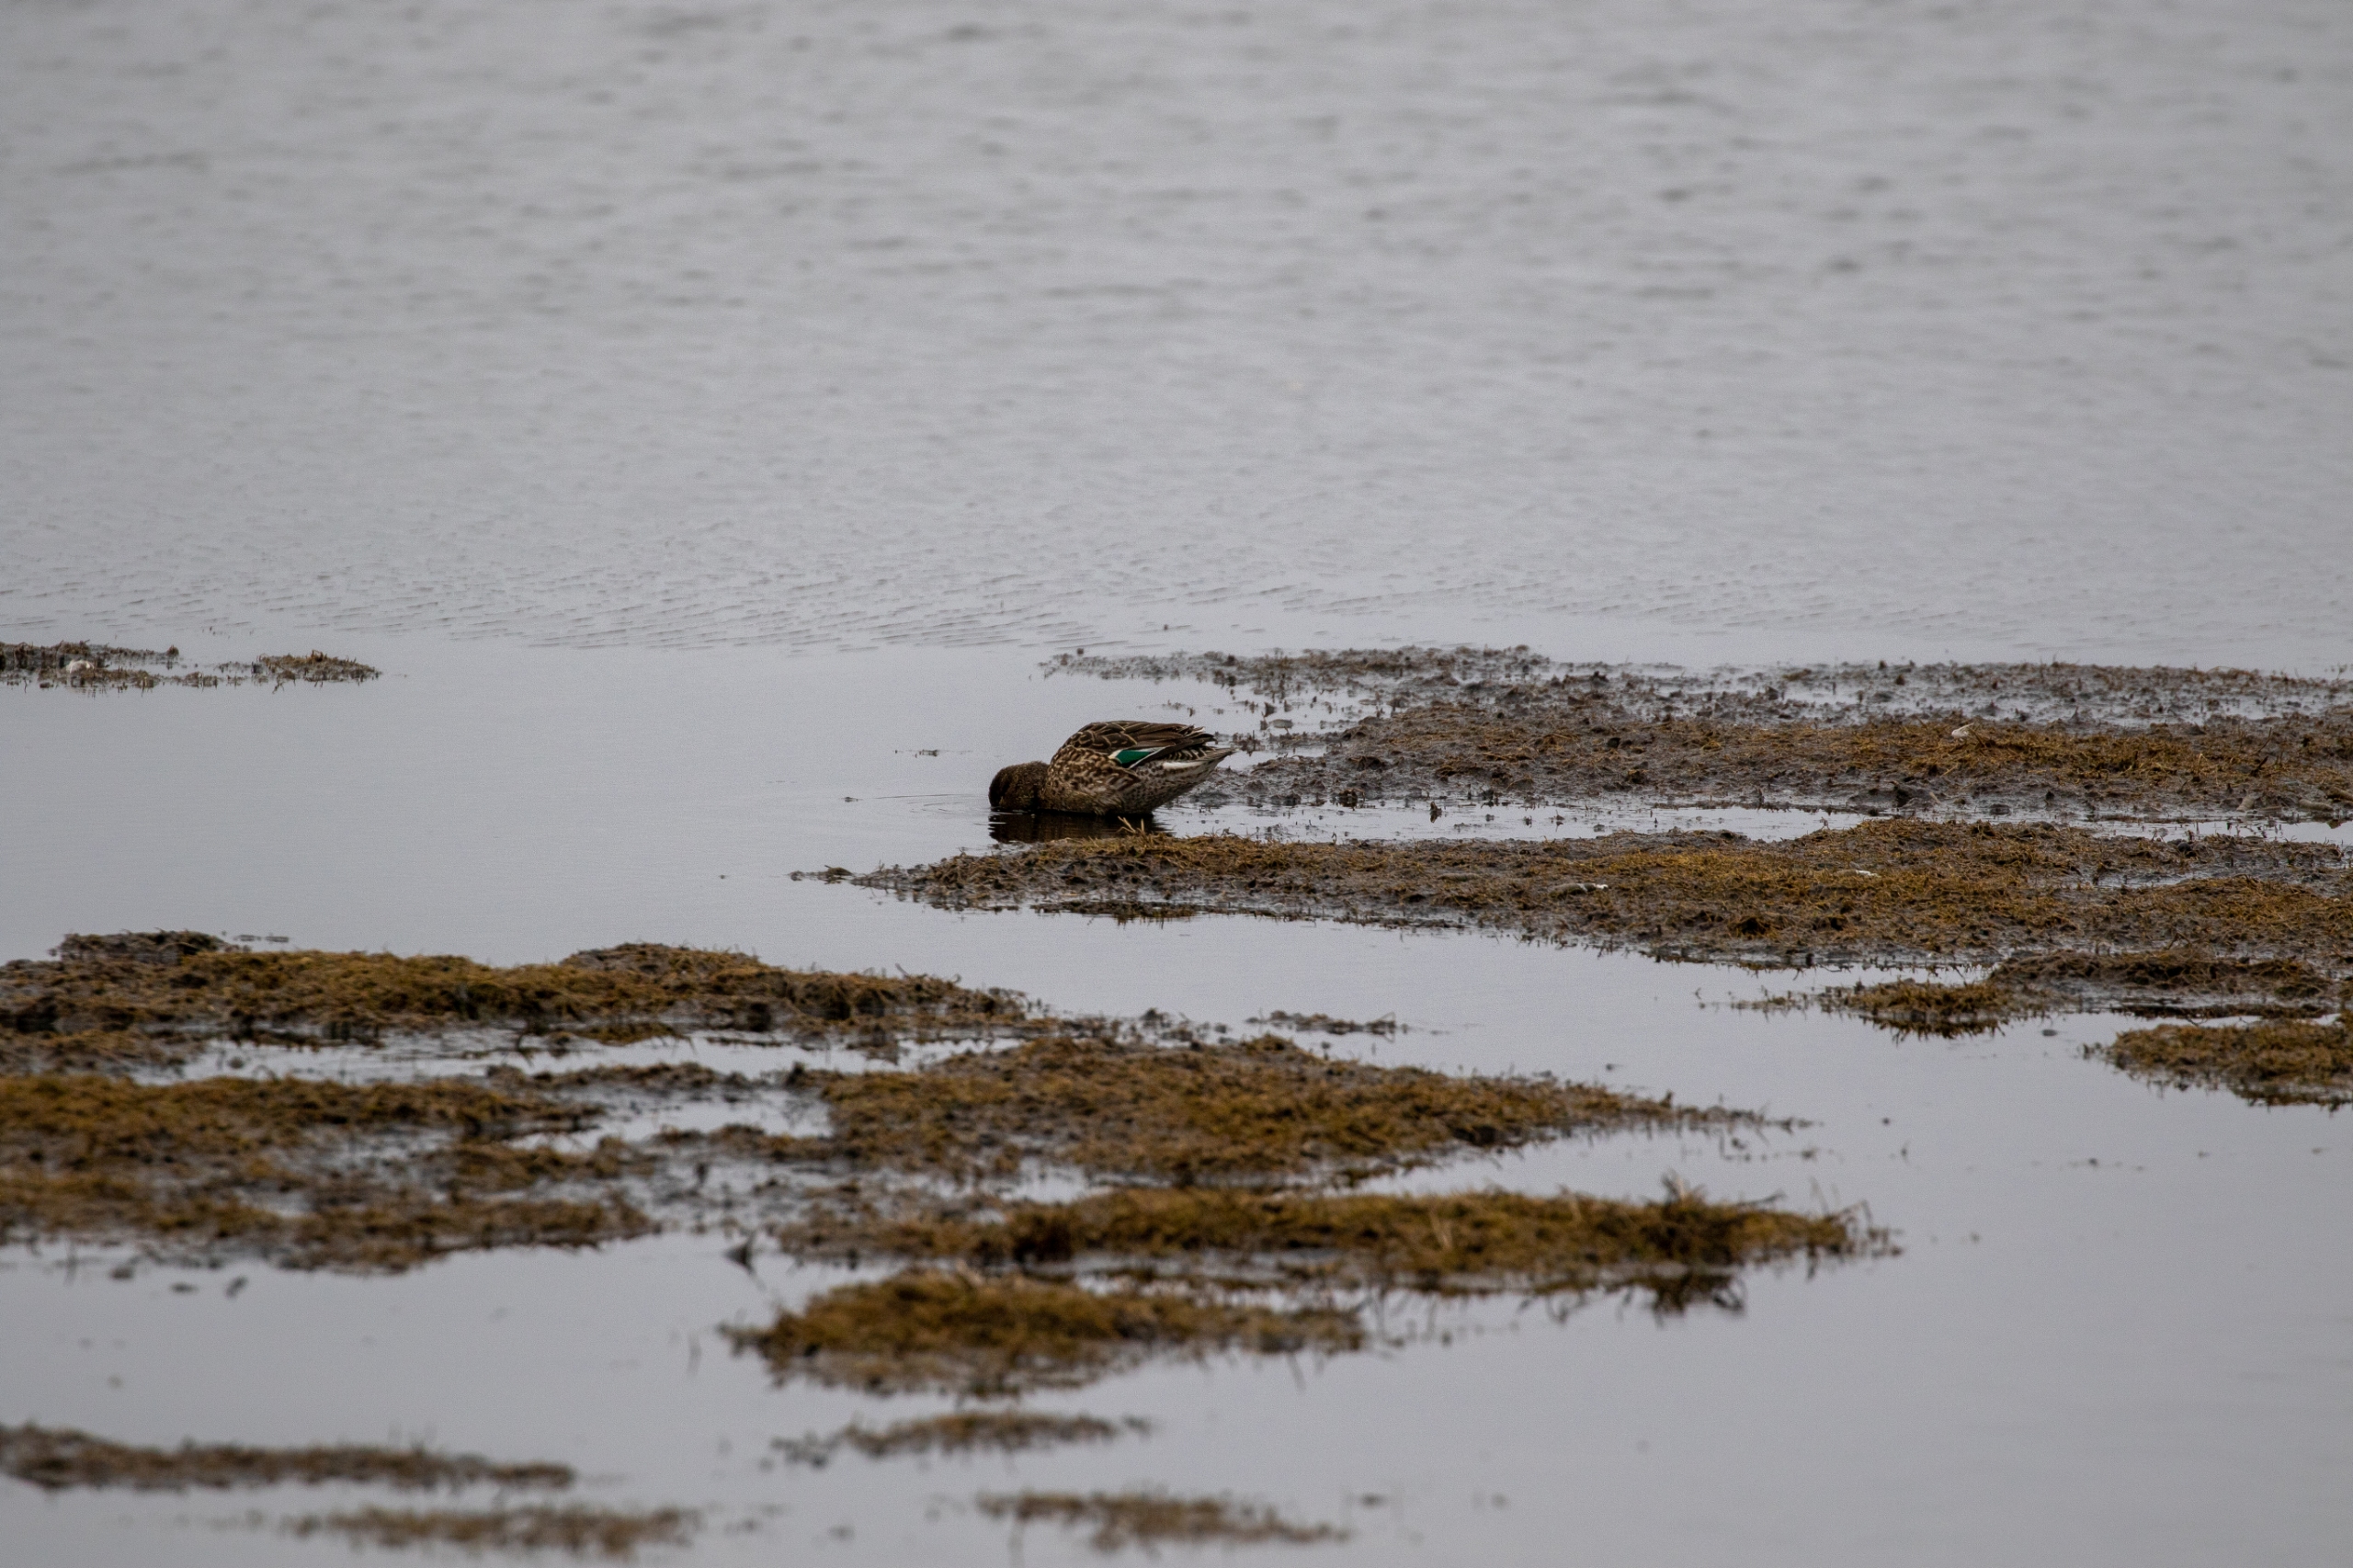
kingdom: Animalia
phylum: Chordata
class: Aves
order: Anseriformes
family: Anatidae
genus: Anas
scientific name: Anas platyrhynchos
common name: Gråand
